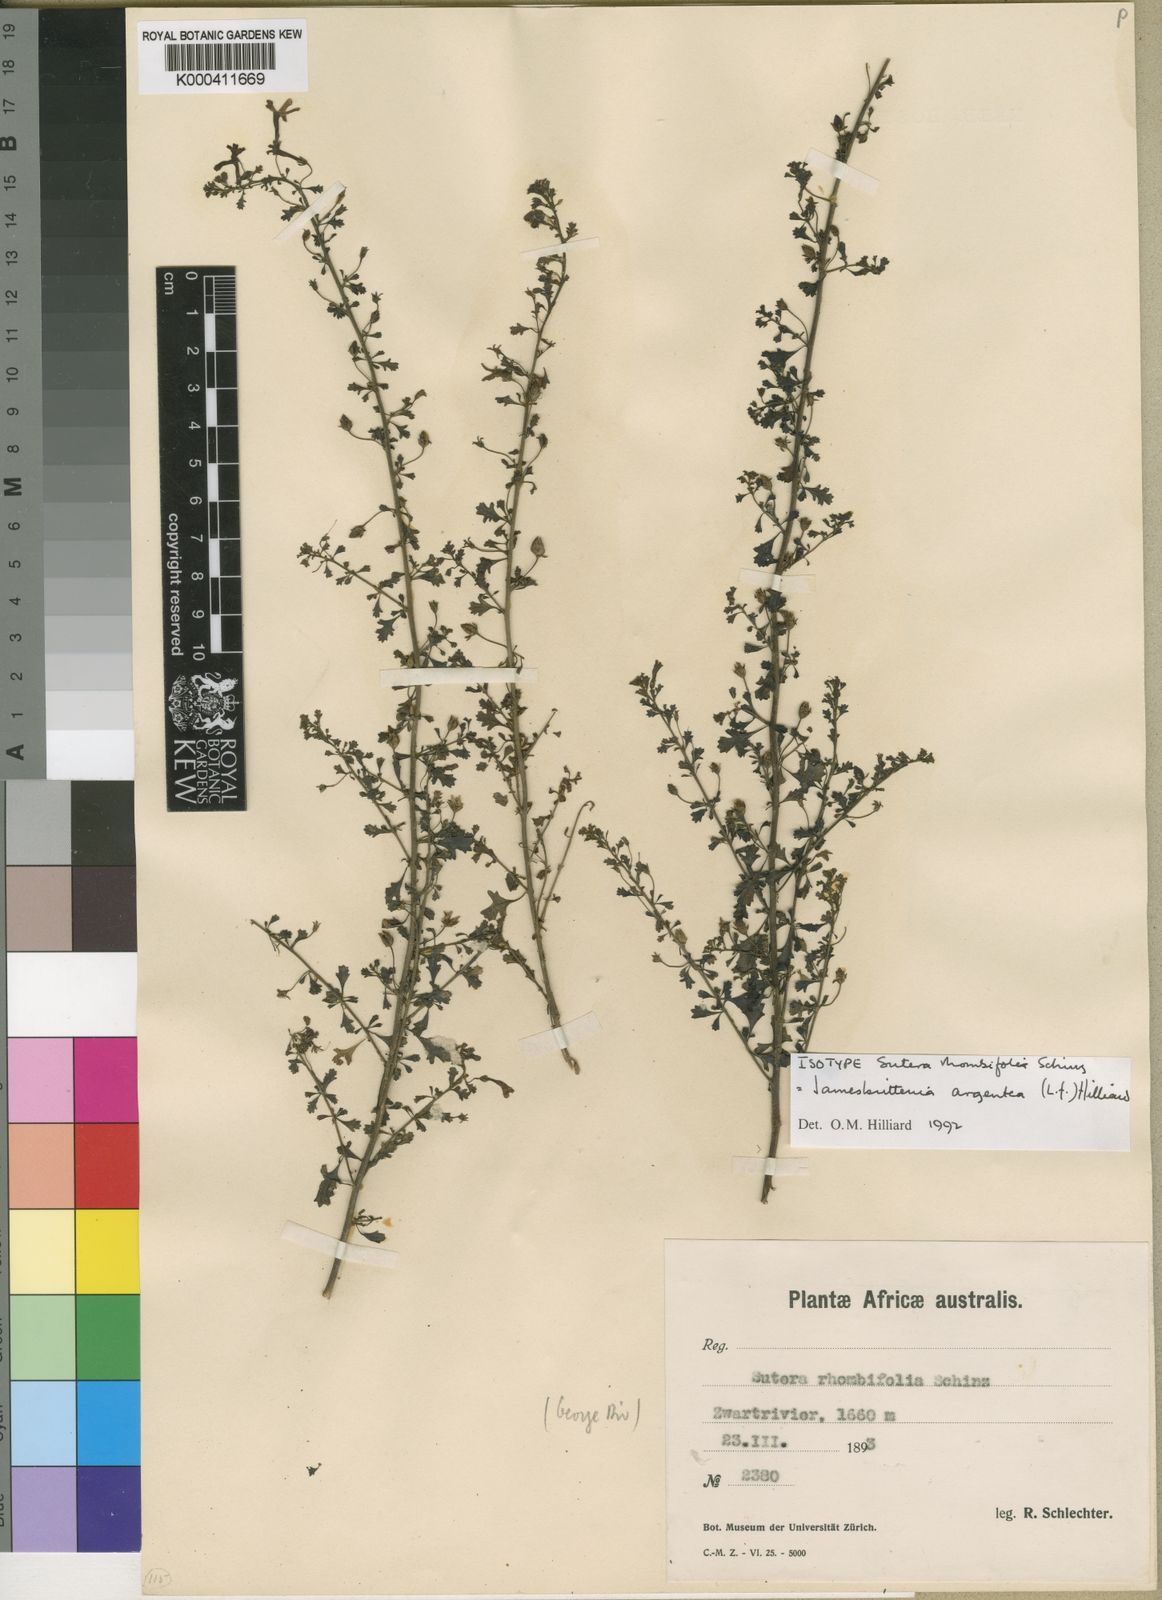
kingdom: Plantae
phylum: Tracheophyta
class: Magnoliopsida
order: Lamiales
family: Scrophulariaceae
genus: Jamesbrittenia
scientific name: Jamesbrittenia argentea
